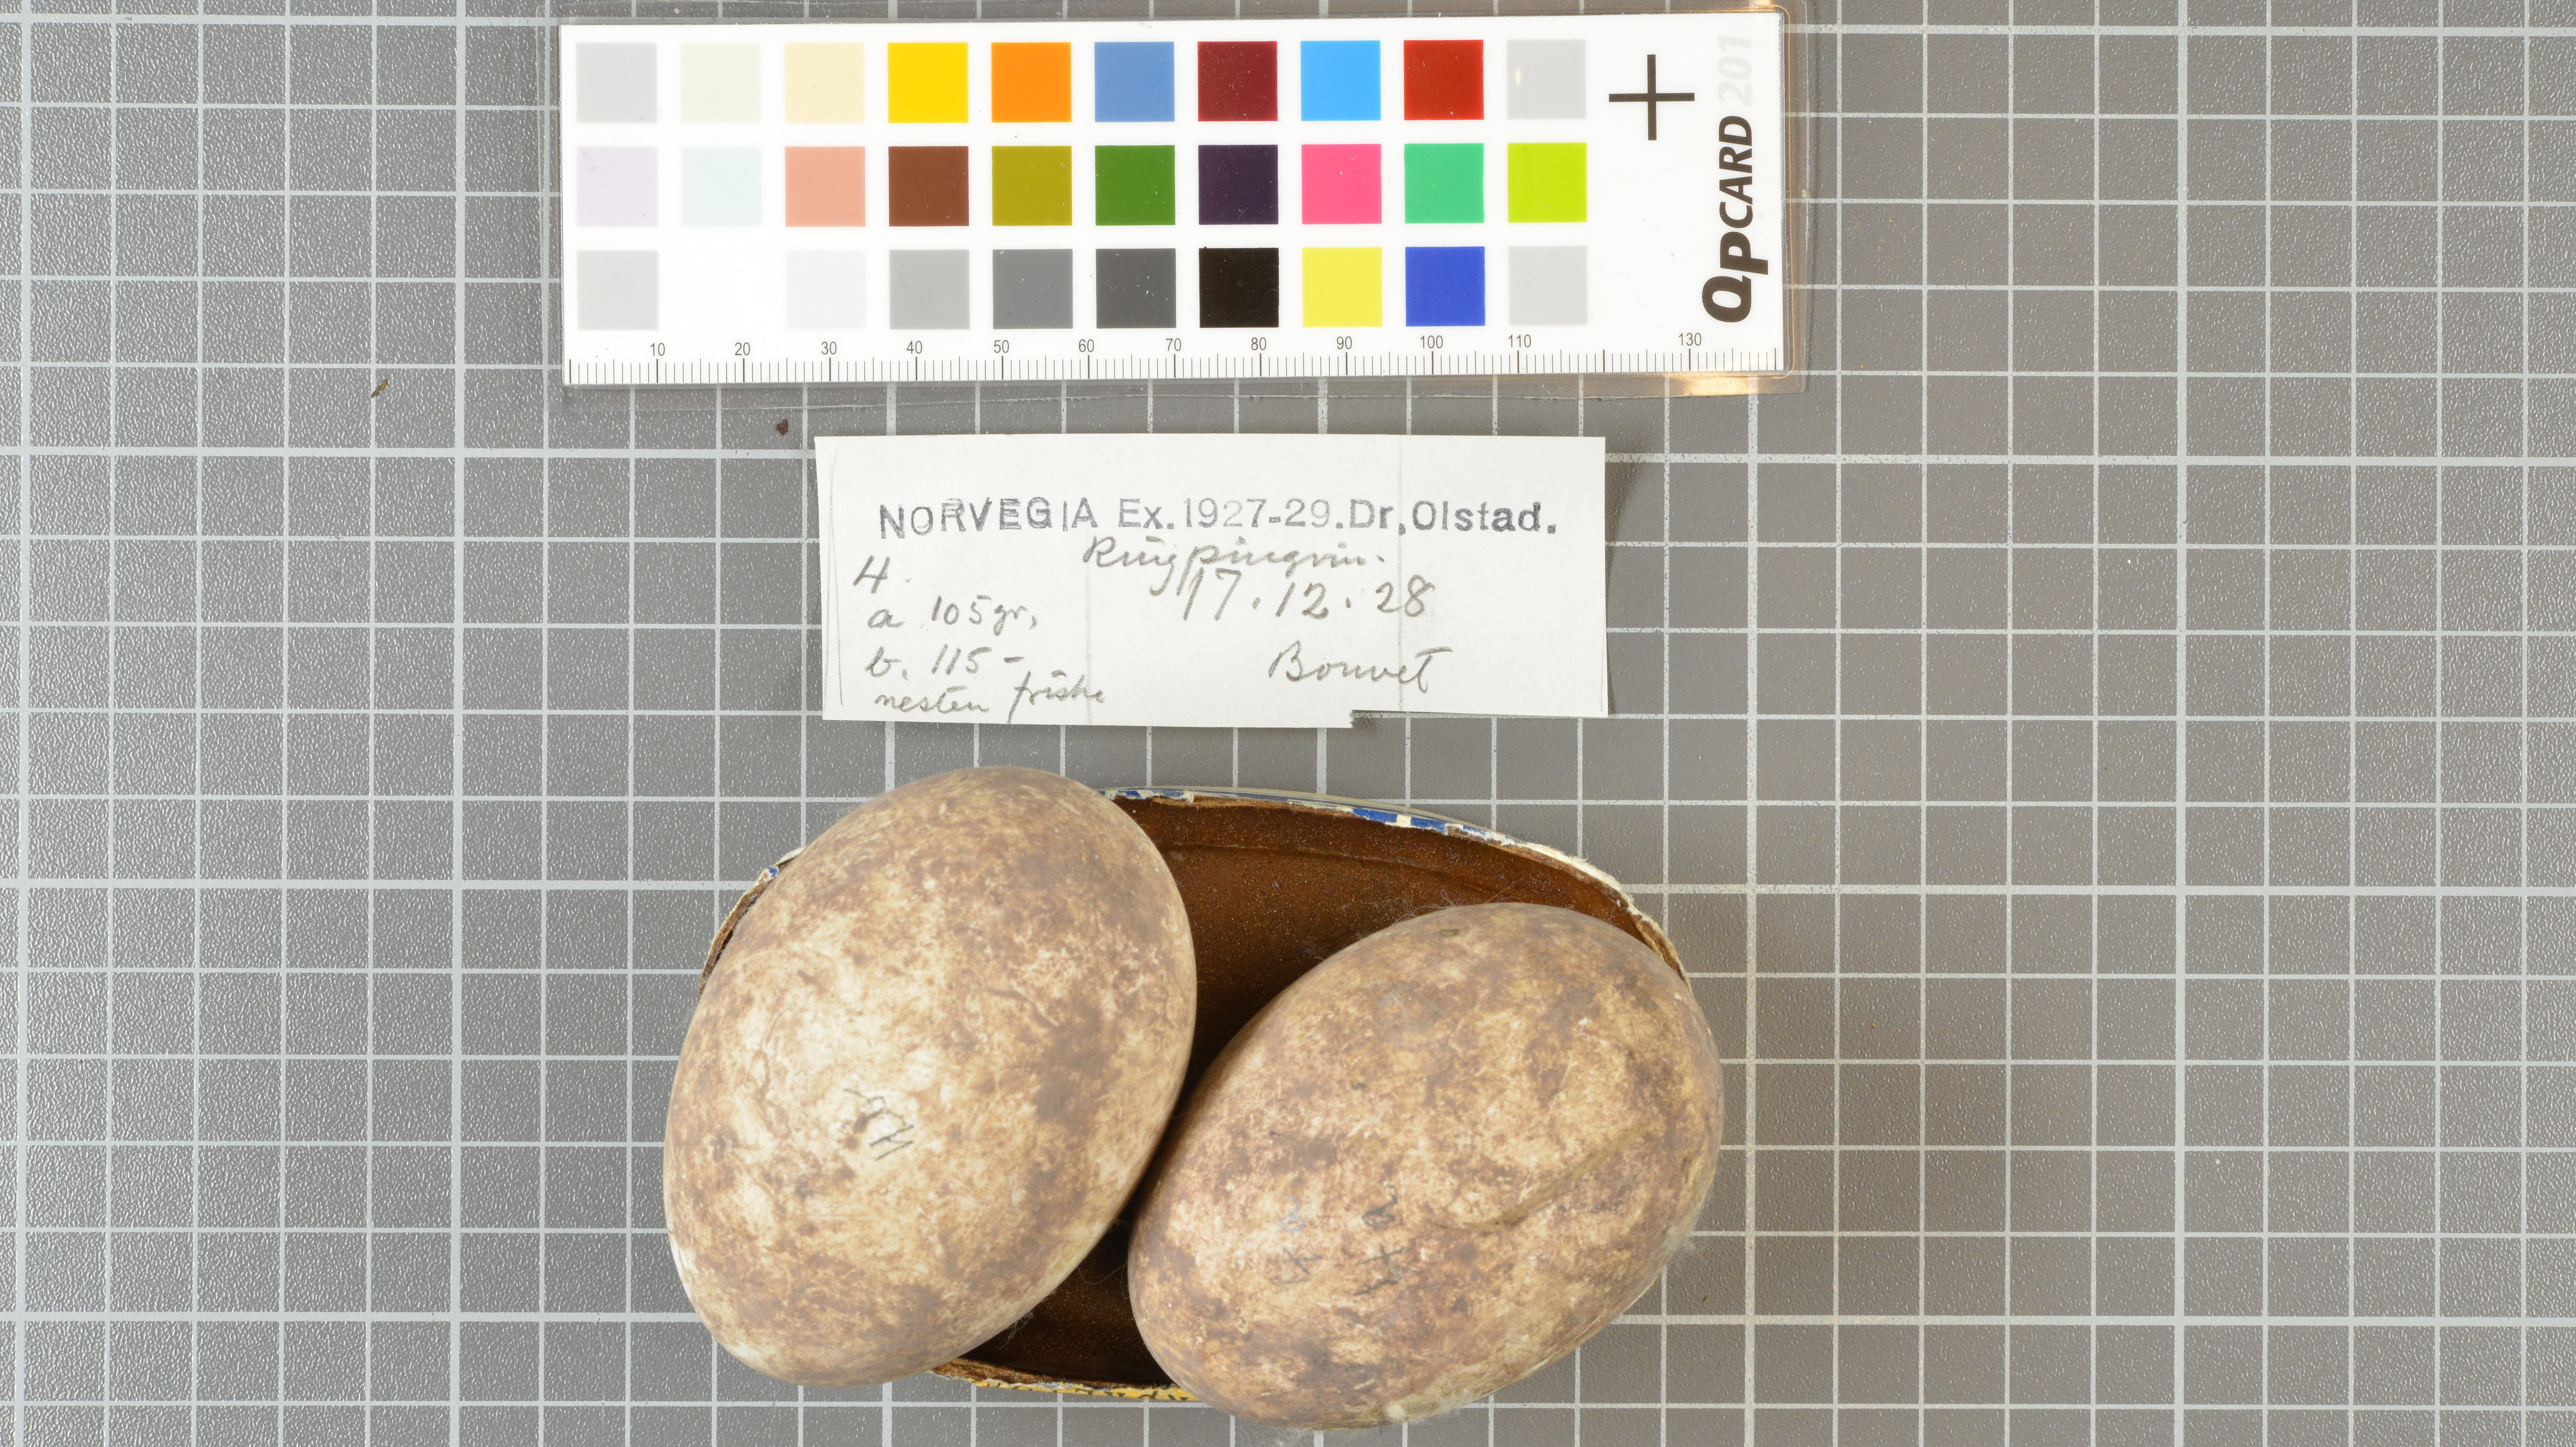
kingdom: Animalia
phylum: Chordata
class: Aves
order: Sphenisciformes
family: Spheniscidae
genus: Pygoscelis
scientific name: Pygoscelis antarcticus
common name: Chinstrap penguin
